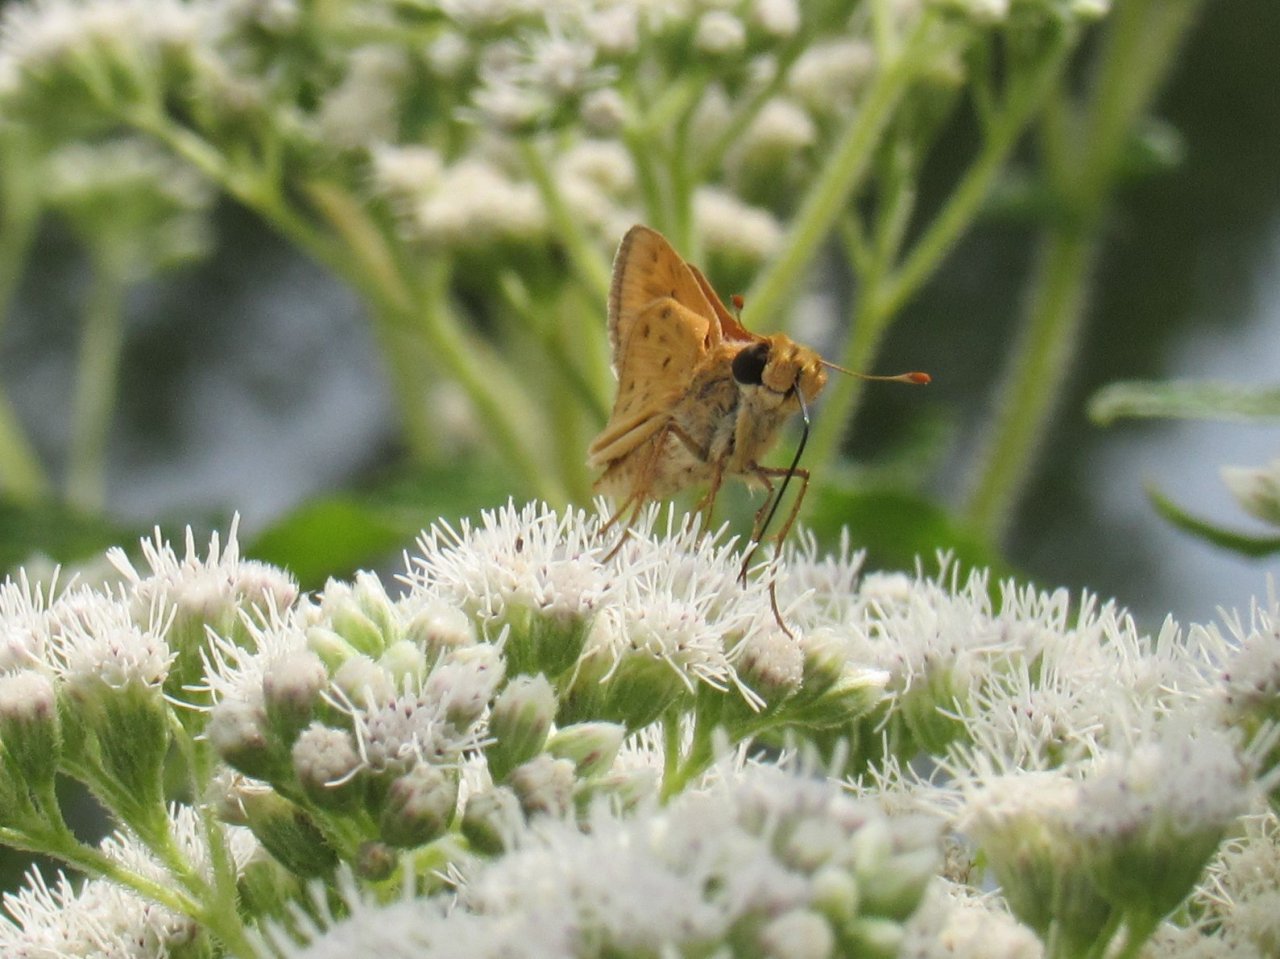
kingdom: Animalia
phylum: Arthropoda
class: Insecta
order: Lepidoptera
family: Hesperiidae
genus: Hylephila
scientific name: Hylephila phyleus
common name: Fiery Skipper
